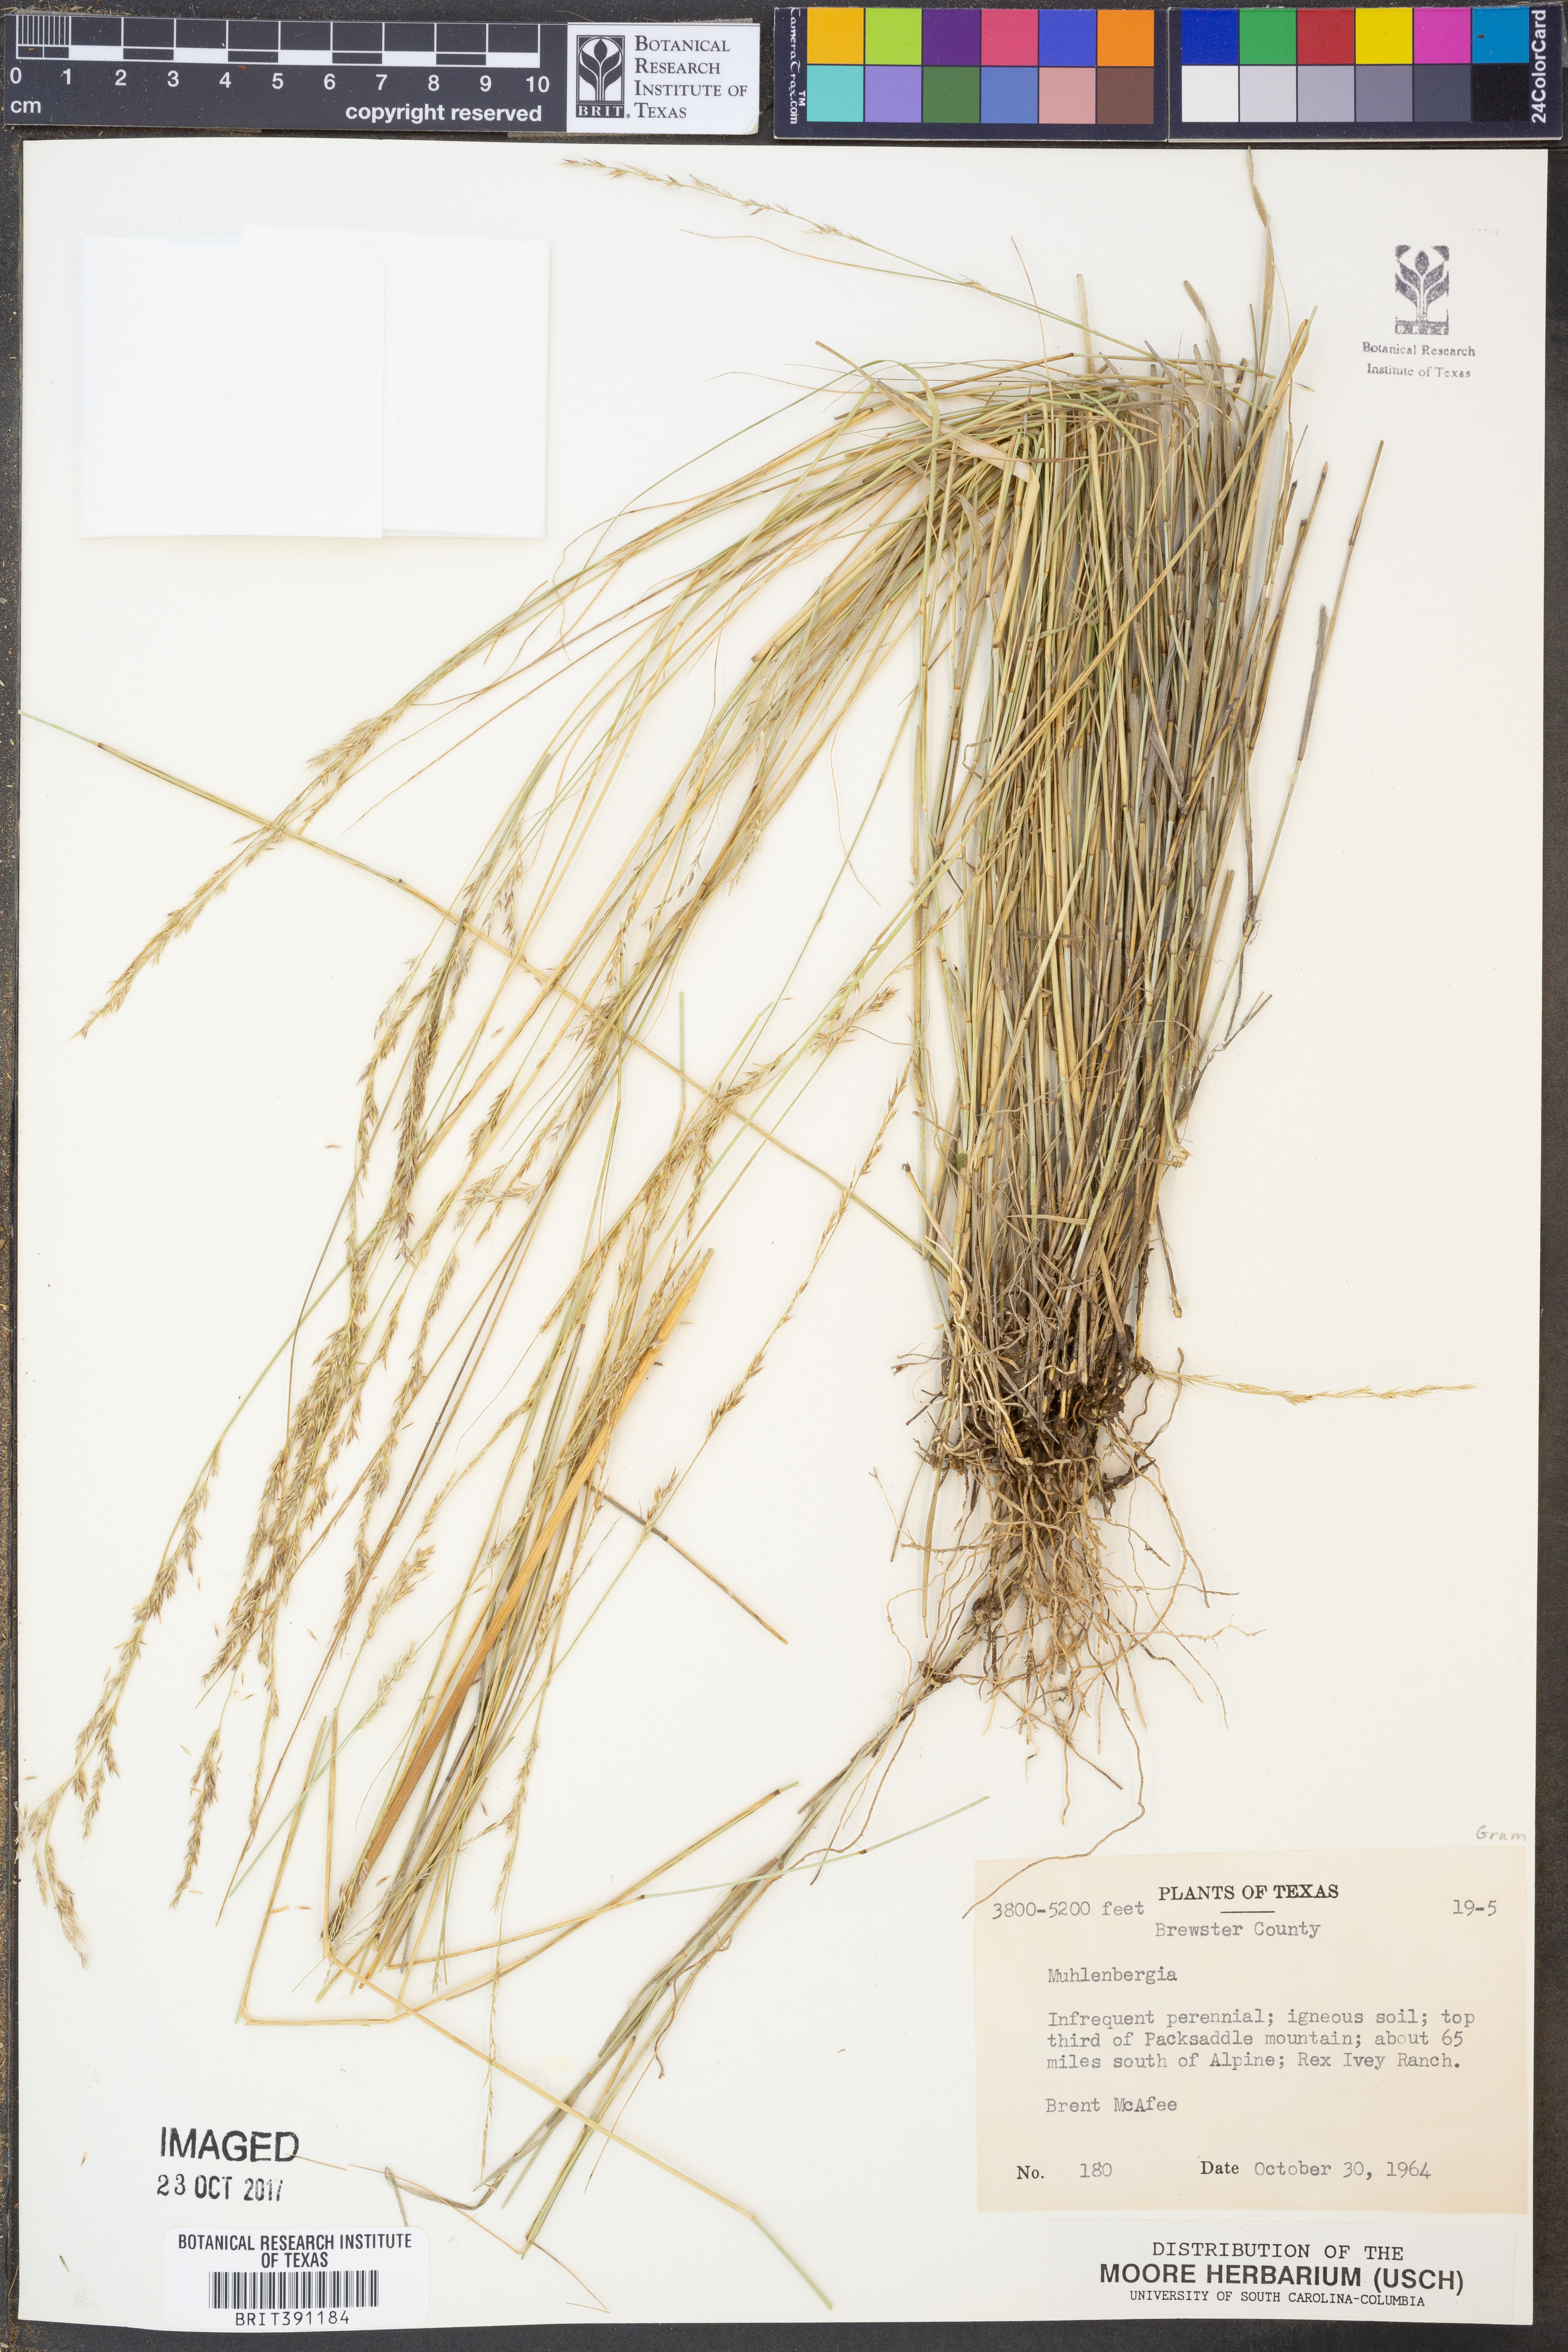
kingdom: Plantae
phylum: Tracheophyta
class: Liliopsida
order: Poales
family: Poaceae
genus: Muhlenbergia
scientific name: Muhlenbergia
